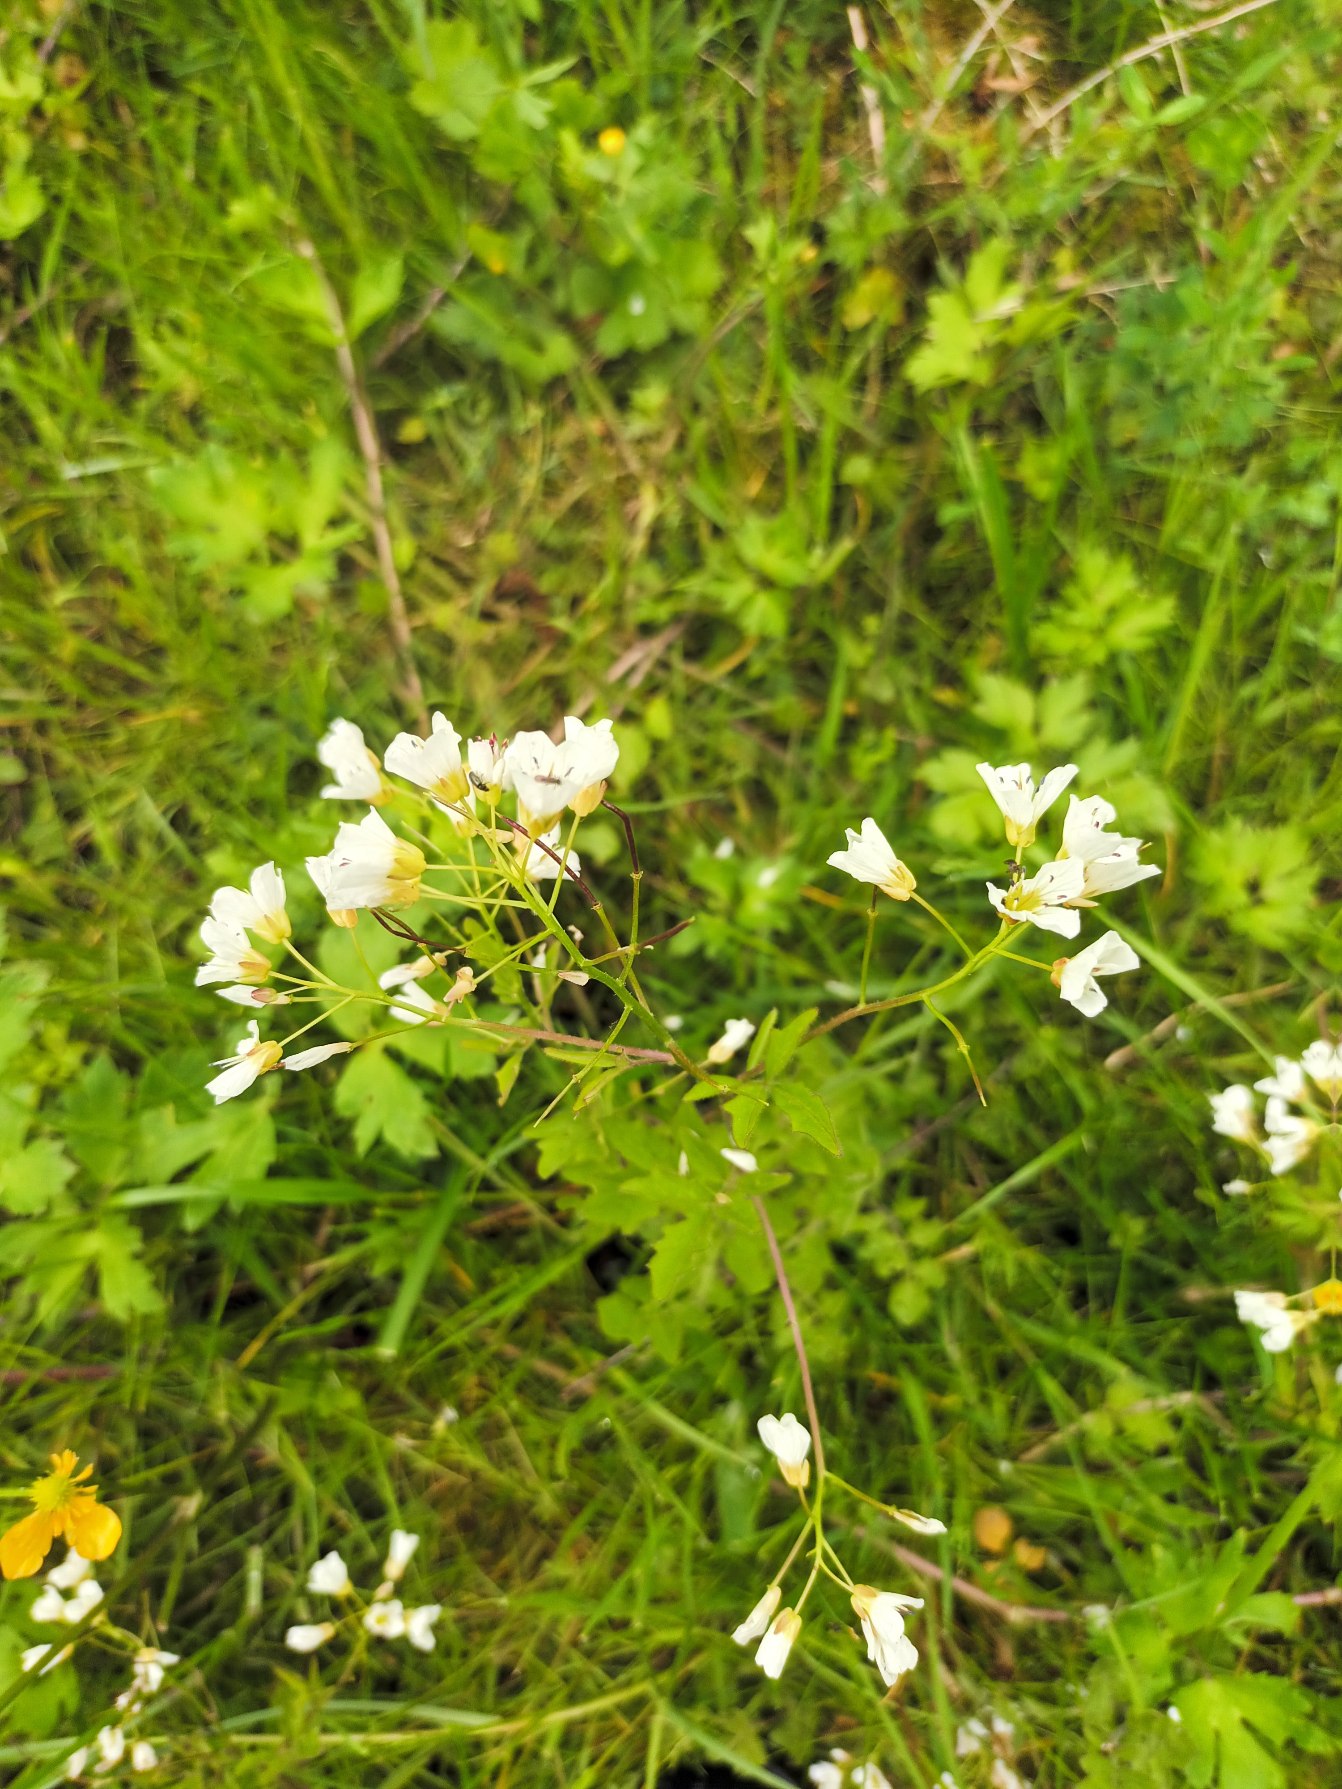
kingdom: Plantae
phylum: Tracheophyta
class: Magnoliopsida
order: Brassicales
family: Brassicaceae
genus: Cardamine
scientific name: Cardamine amara
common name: Vandkarse
